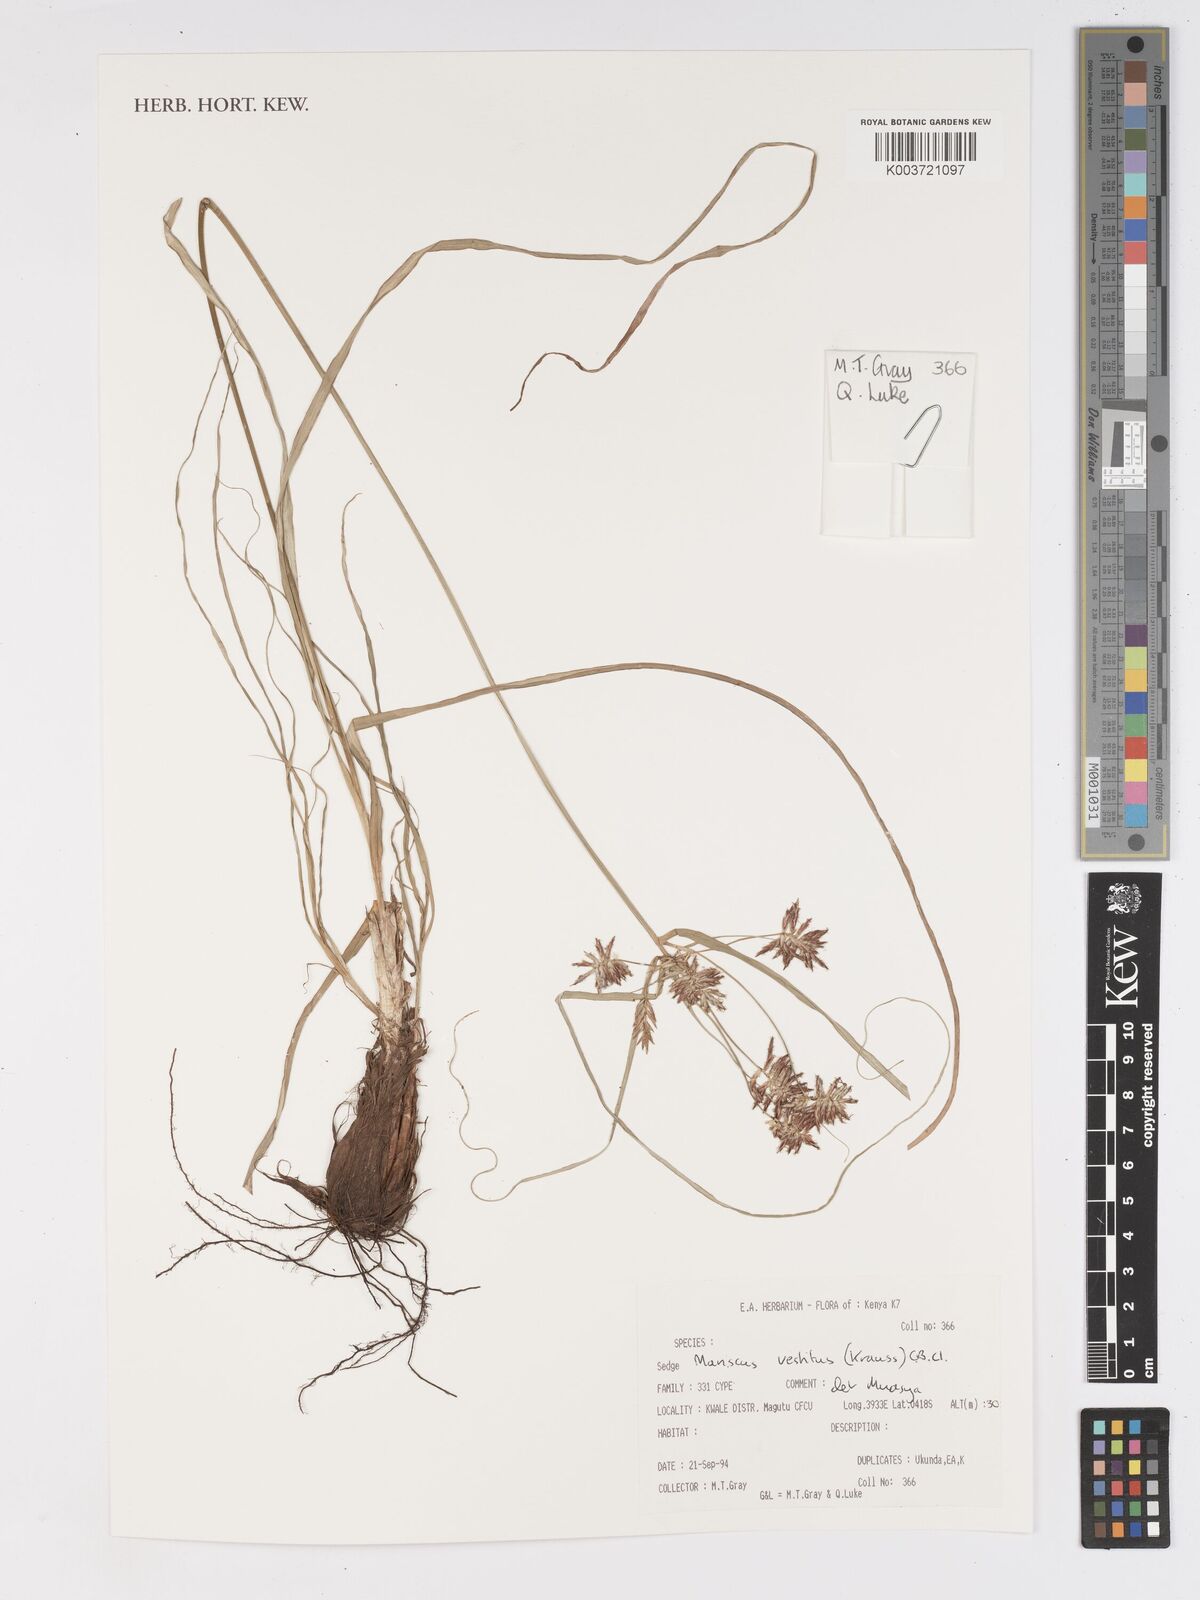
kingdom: Plantae
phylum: Tracheophyta
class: Liliopsida
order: Poales
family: Cyperaceae
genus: Cyperus
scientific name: Cyperus vestitus
